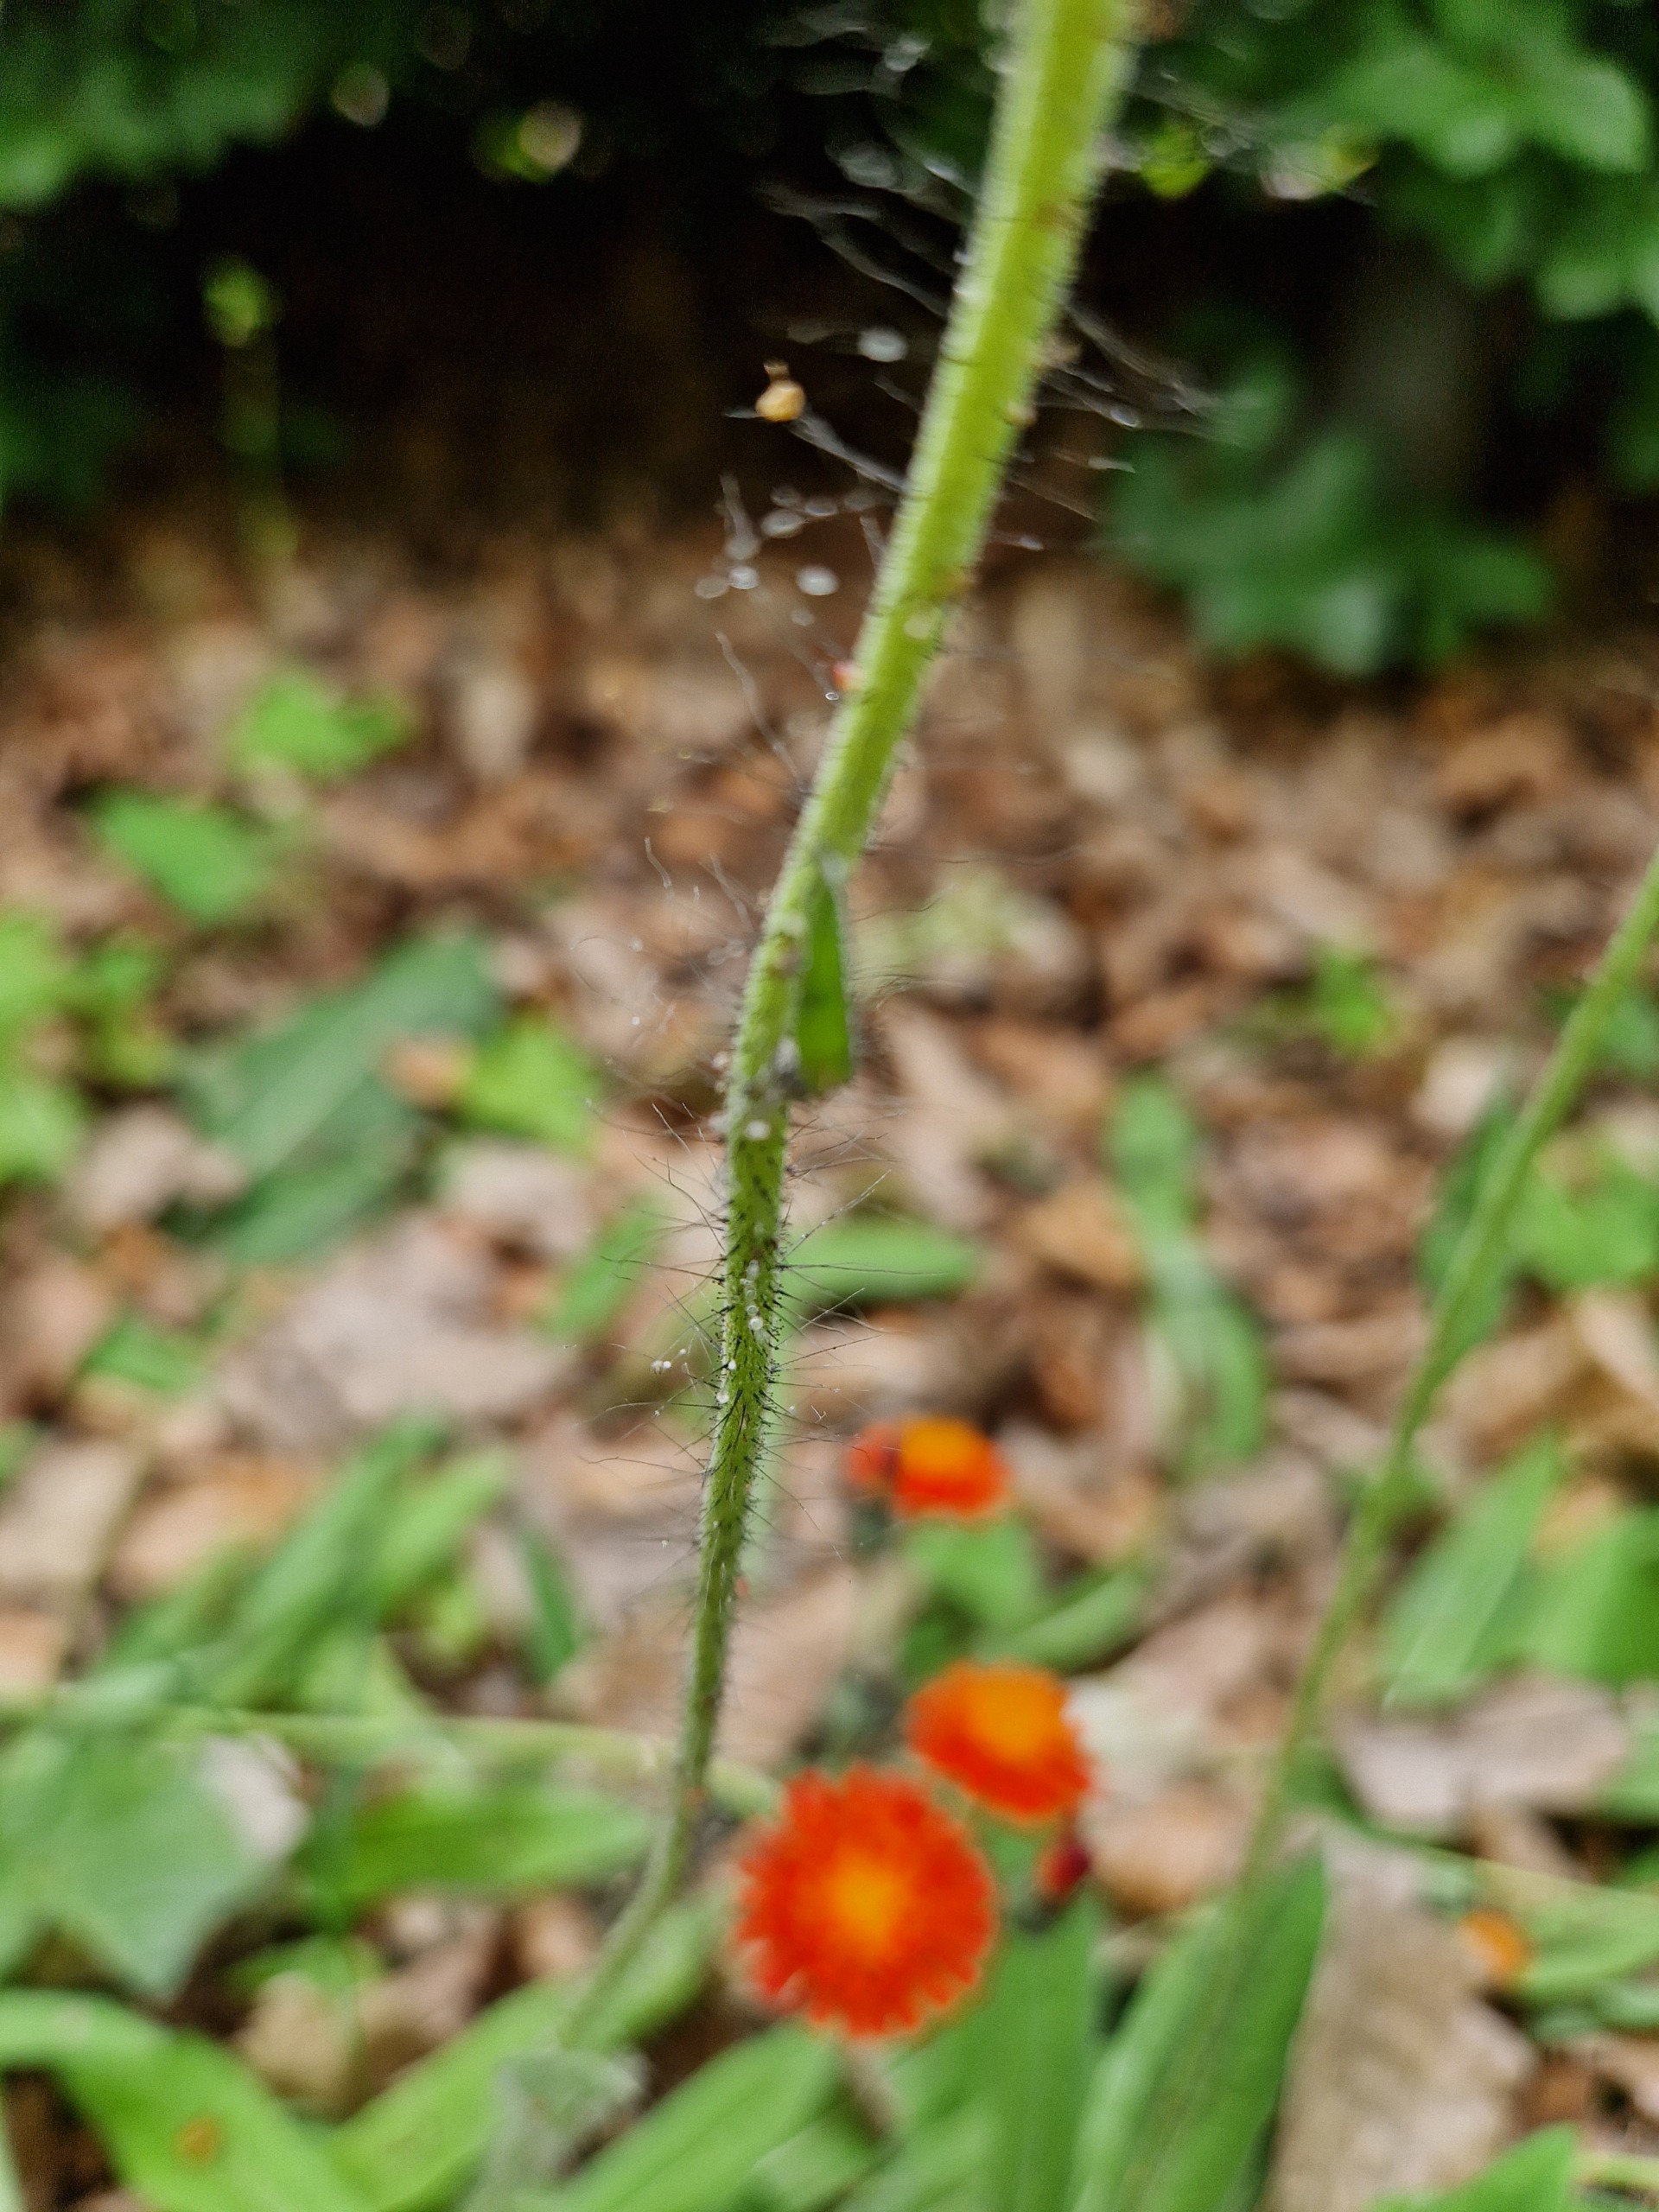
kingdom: Plantae
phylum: Tracheophyta
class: Magnoliopsida
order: Asterales
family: Asteraceae
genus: Pilosella
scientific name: Pilosella aurantiaca
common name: Pomerans-høgeurt
